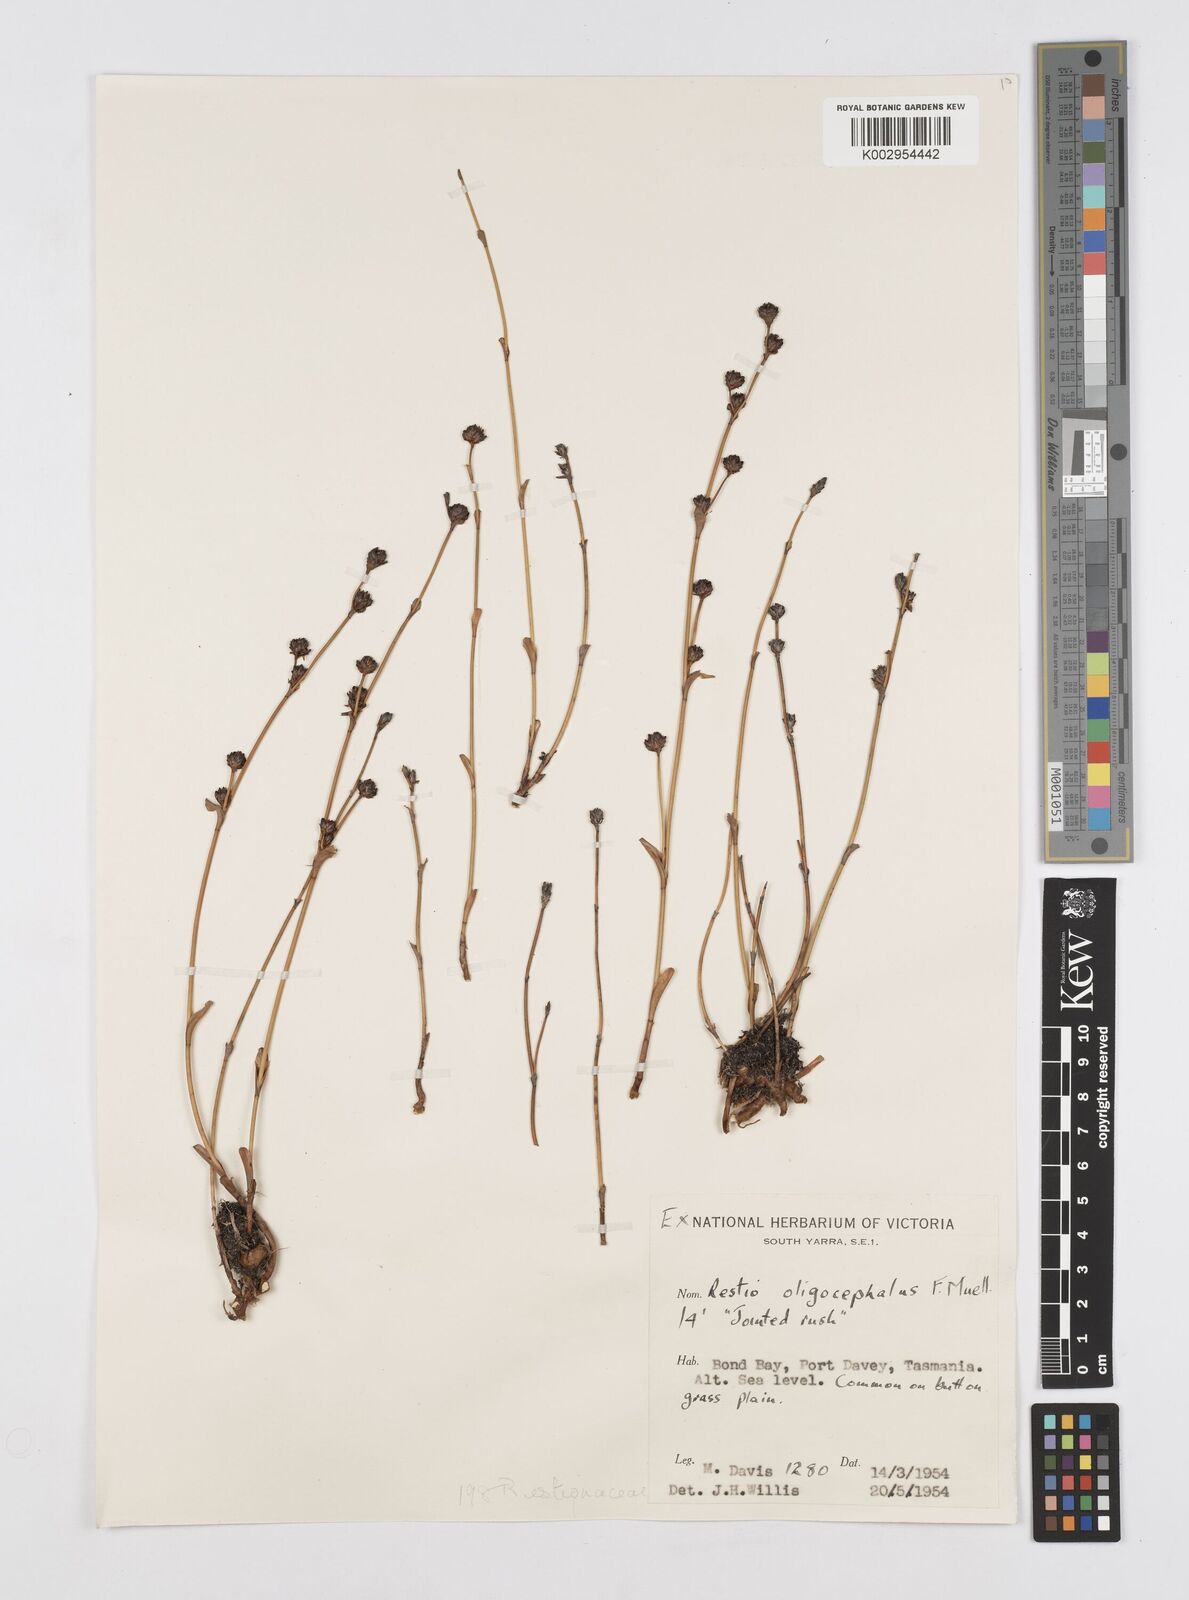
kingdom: Plantae
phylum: Tracheophyta
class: Liliopsida
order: Poales
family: Restionaceae
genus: Chordifex
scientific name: Chordifex hookeri
